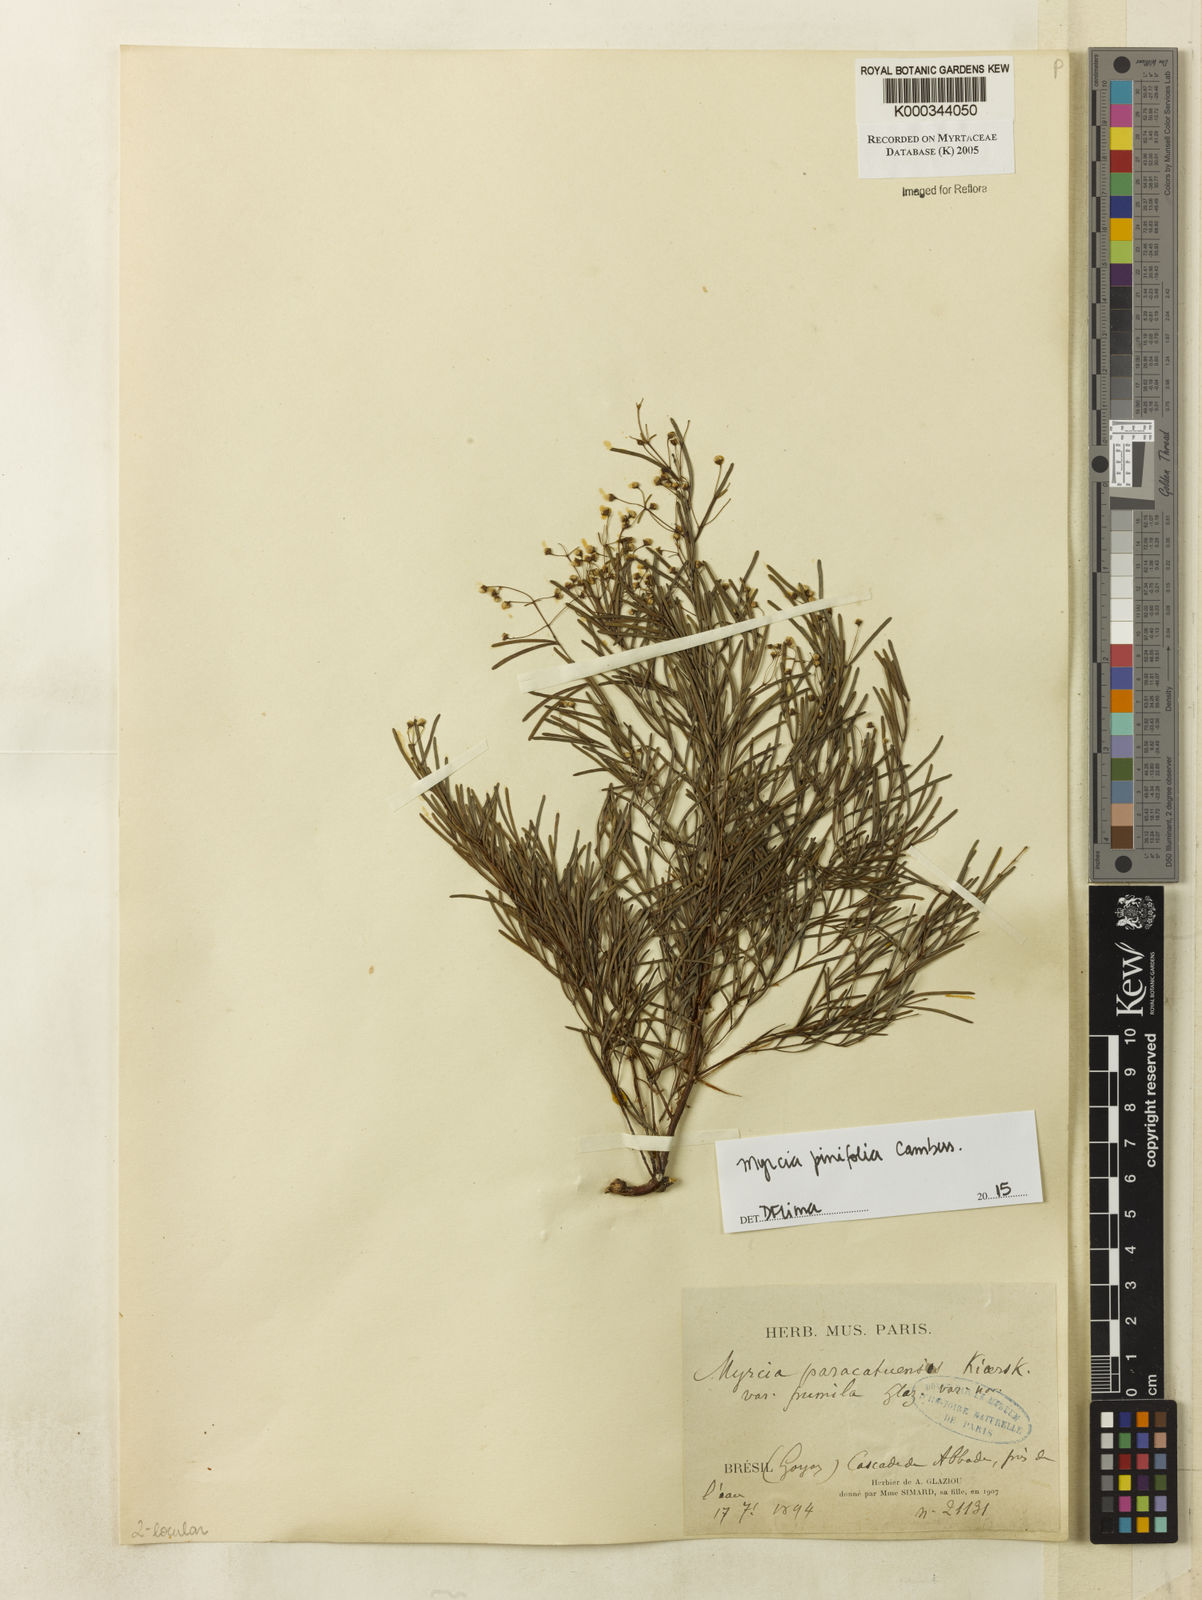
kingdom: Plantae
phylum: Tracheophyta
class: Magnoliopsida
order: Myrtales
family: Myrtaceae
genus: Myrcia
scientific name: Myrcia paracatuensis
